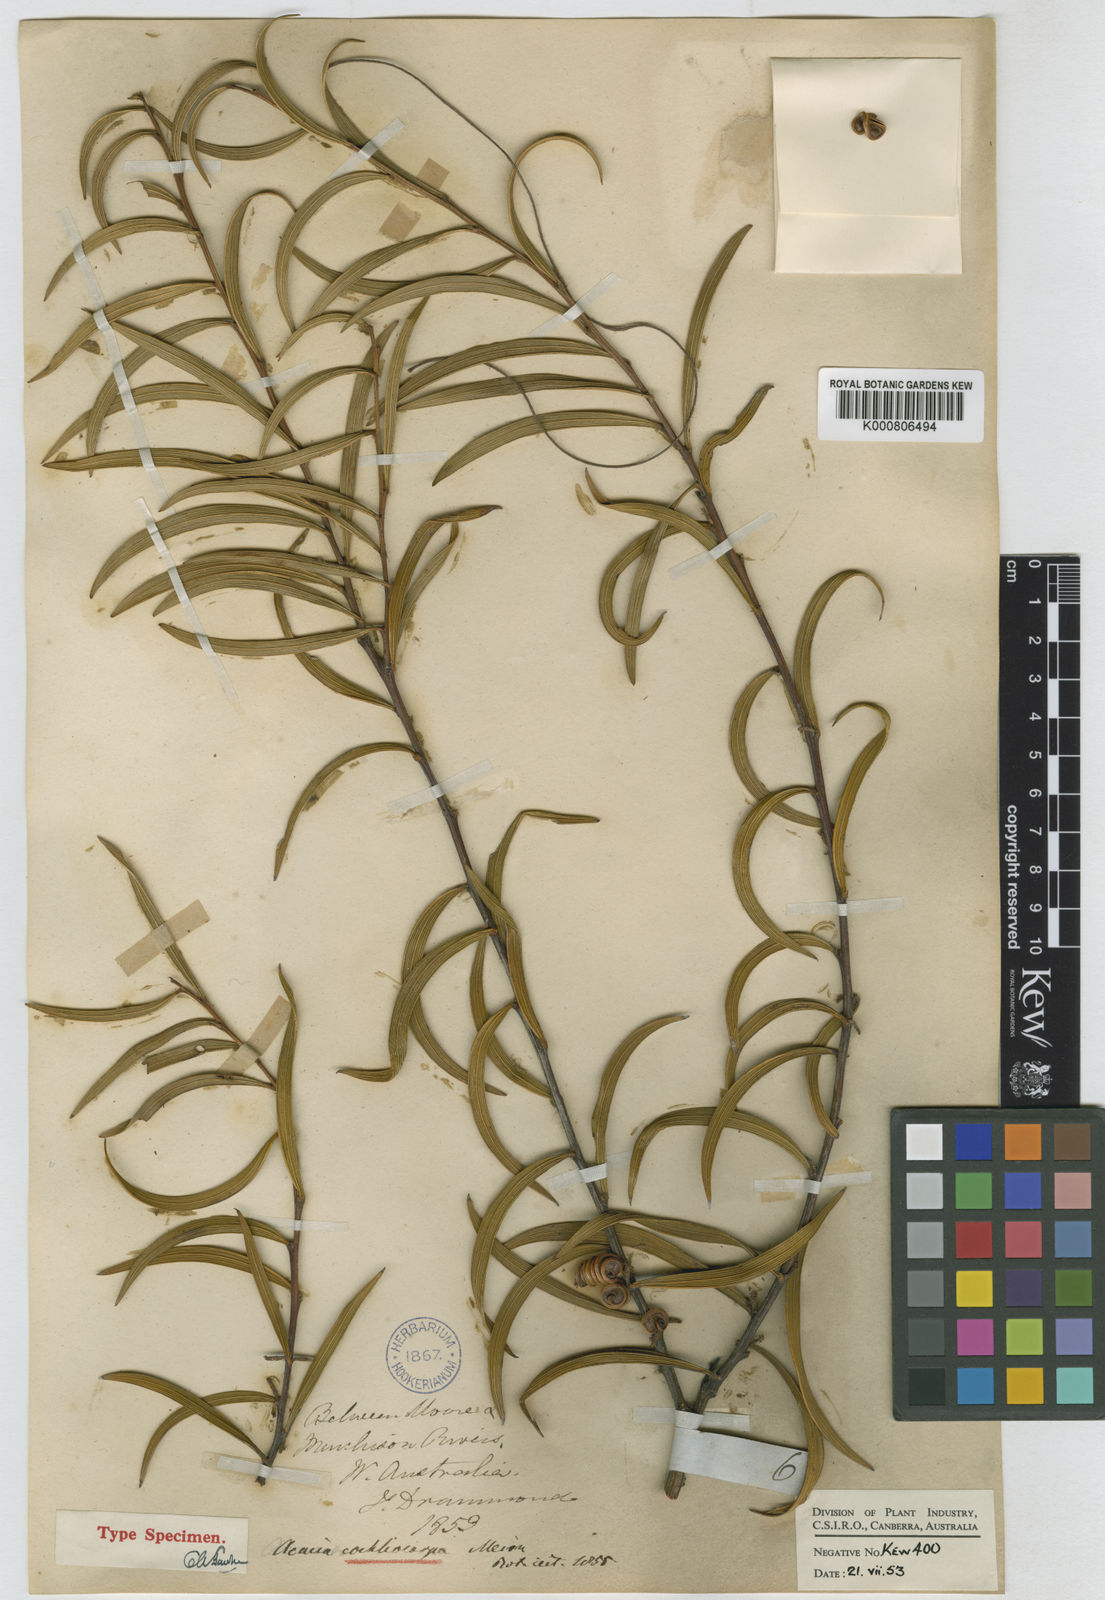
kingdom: Plantae
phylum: Tracheophyta
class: Magnoliopsida
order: Fabales
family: Fabaceae
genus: Acacia
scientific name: Acacia
